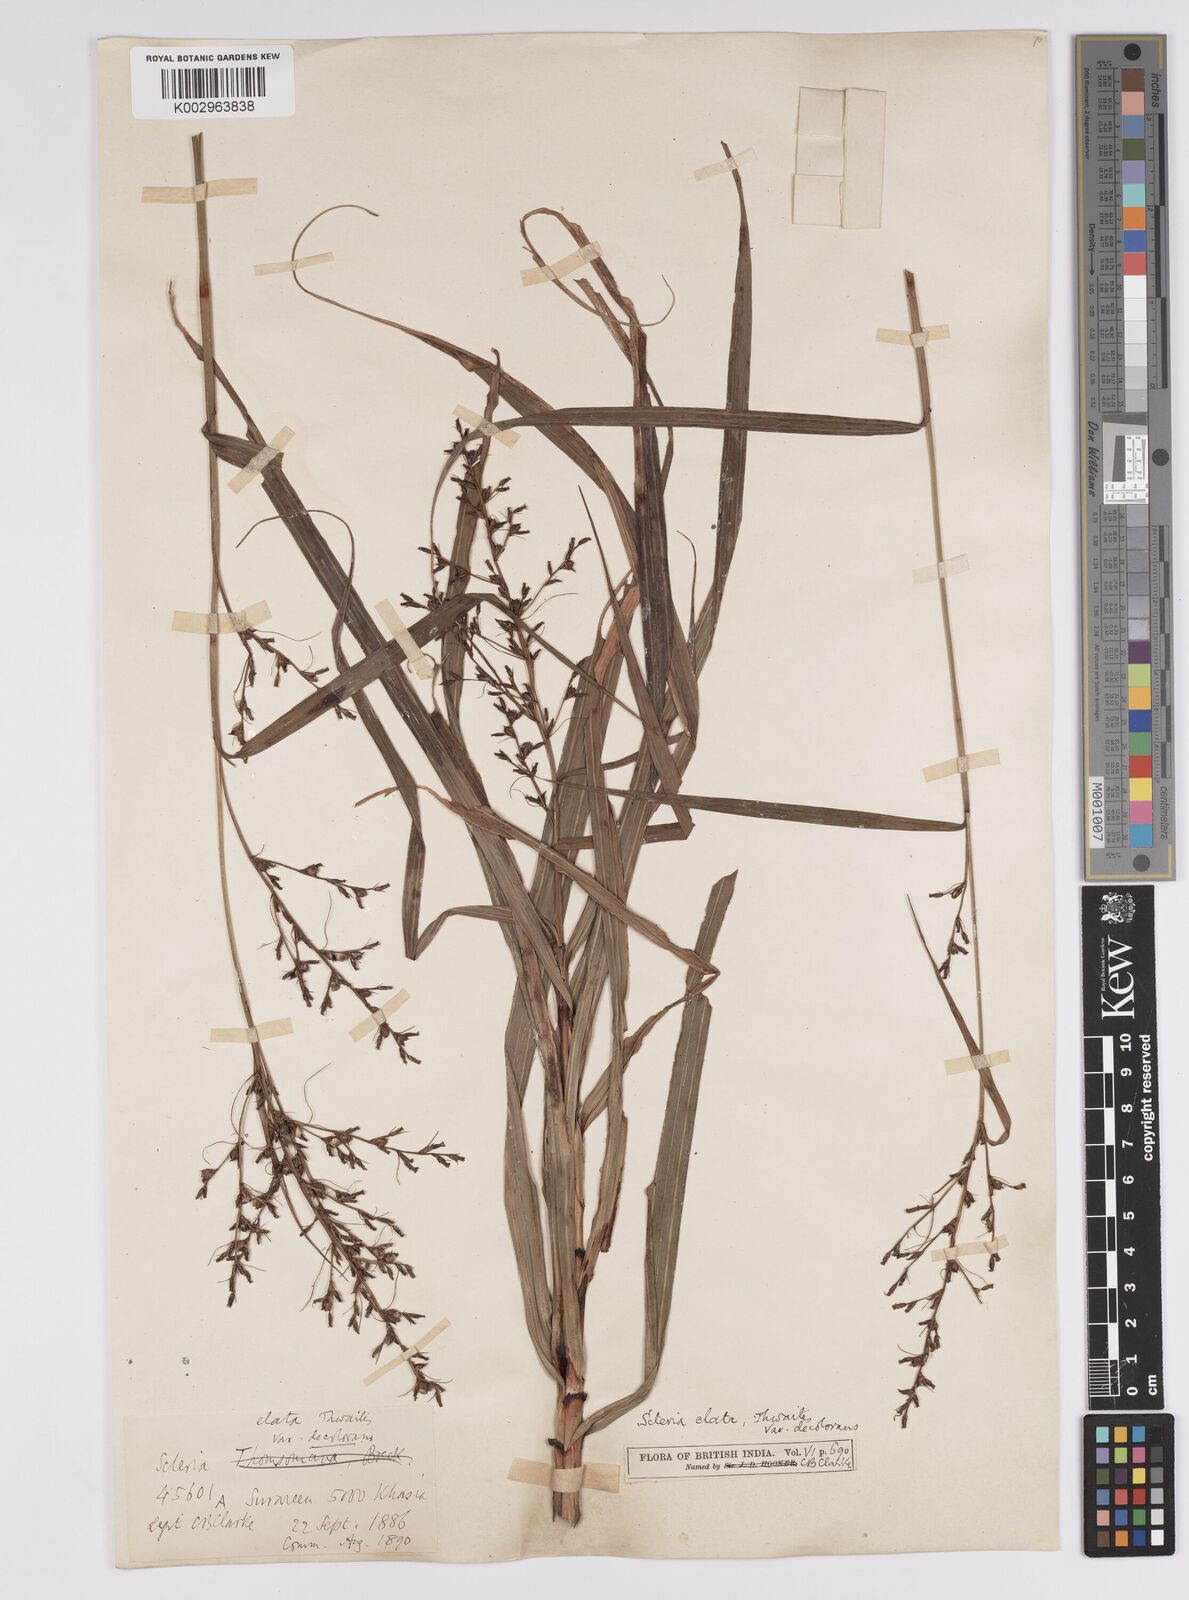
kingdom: Plantae
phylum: Tracheophyta
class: Liliopsida
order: Poales
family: Cyperaceae
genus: Scleria
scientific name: Scleria terrestris
